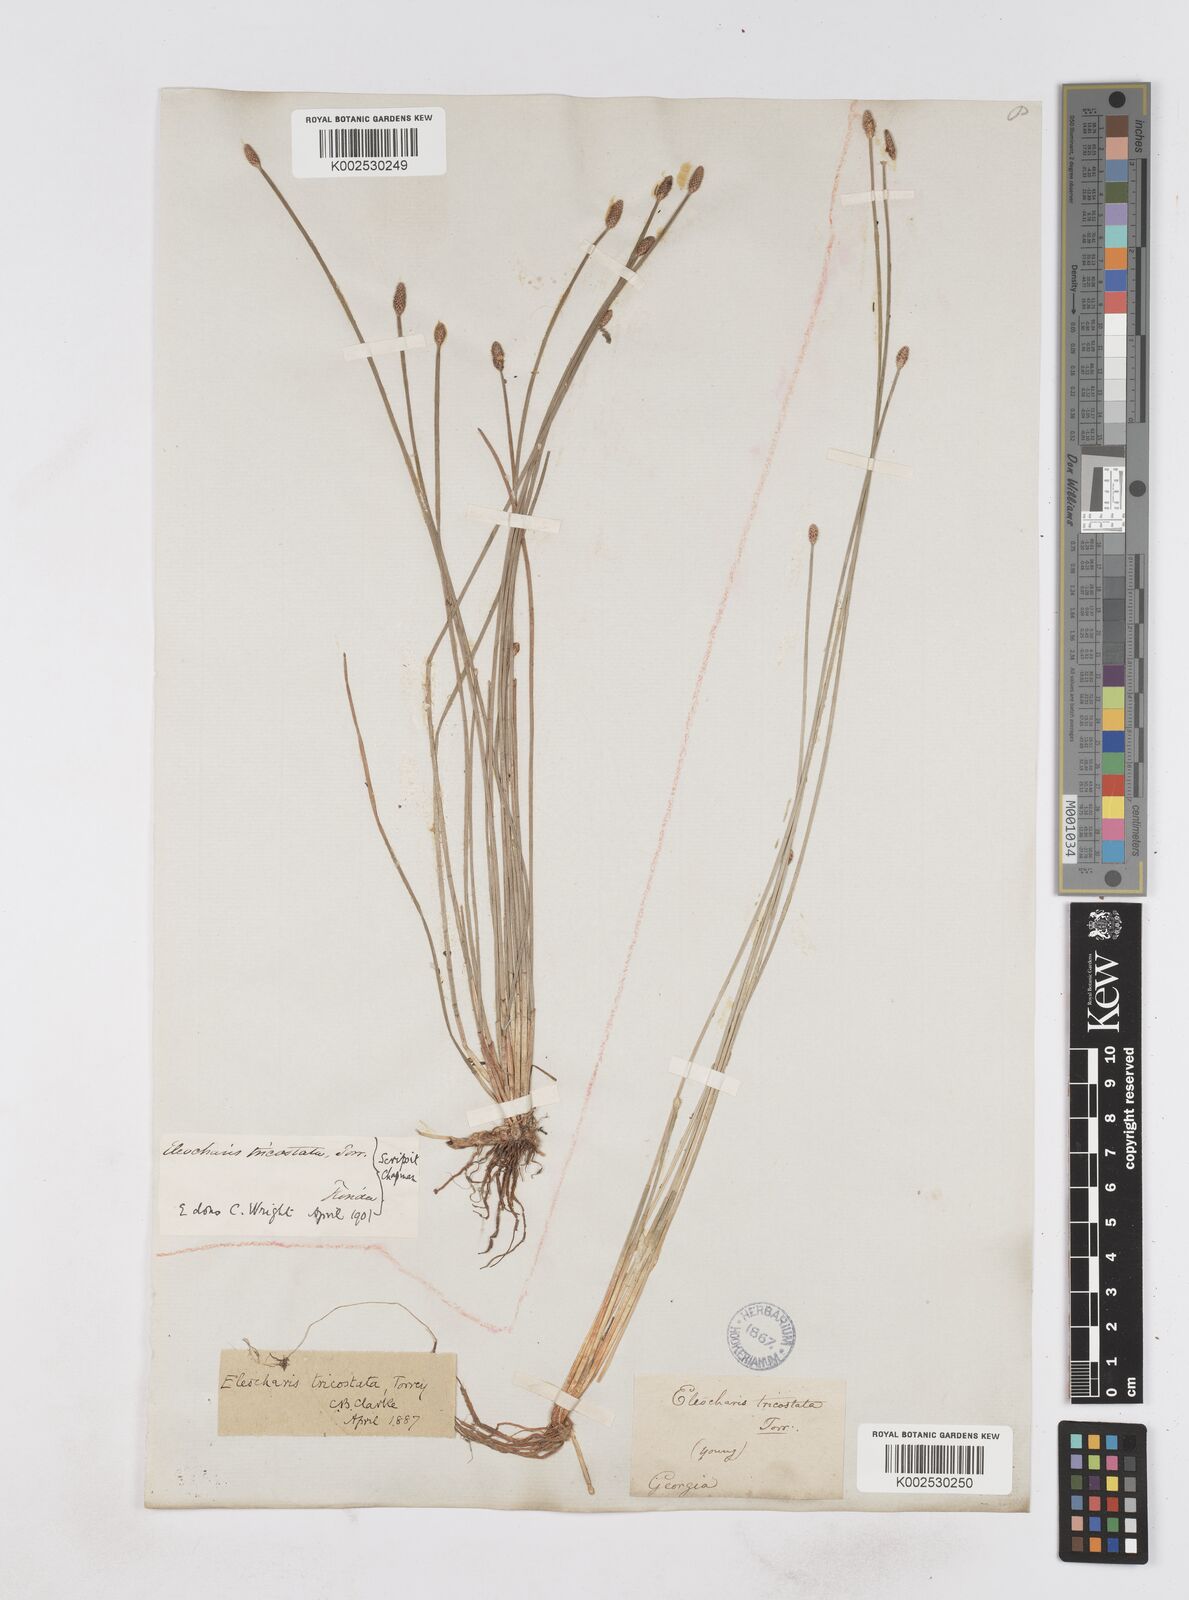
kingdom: Plantae
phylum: Tracheophyta
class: Liliopsida
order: Poales
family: Cyperaceae
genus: Eleocharis
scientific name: Eleocharis tricostata
